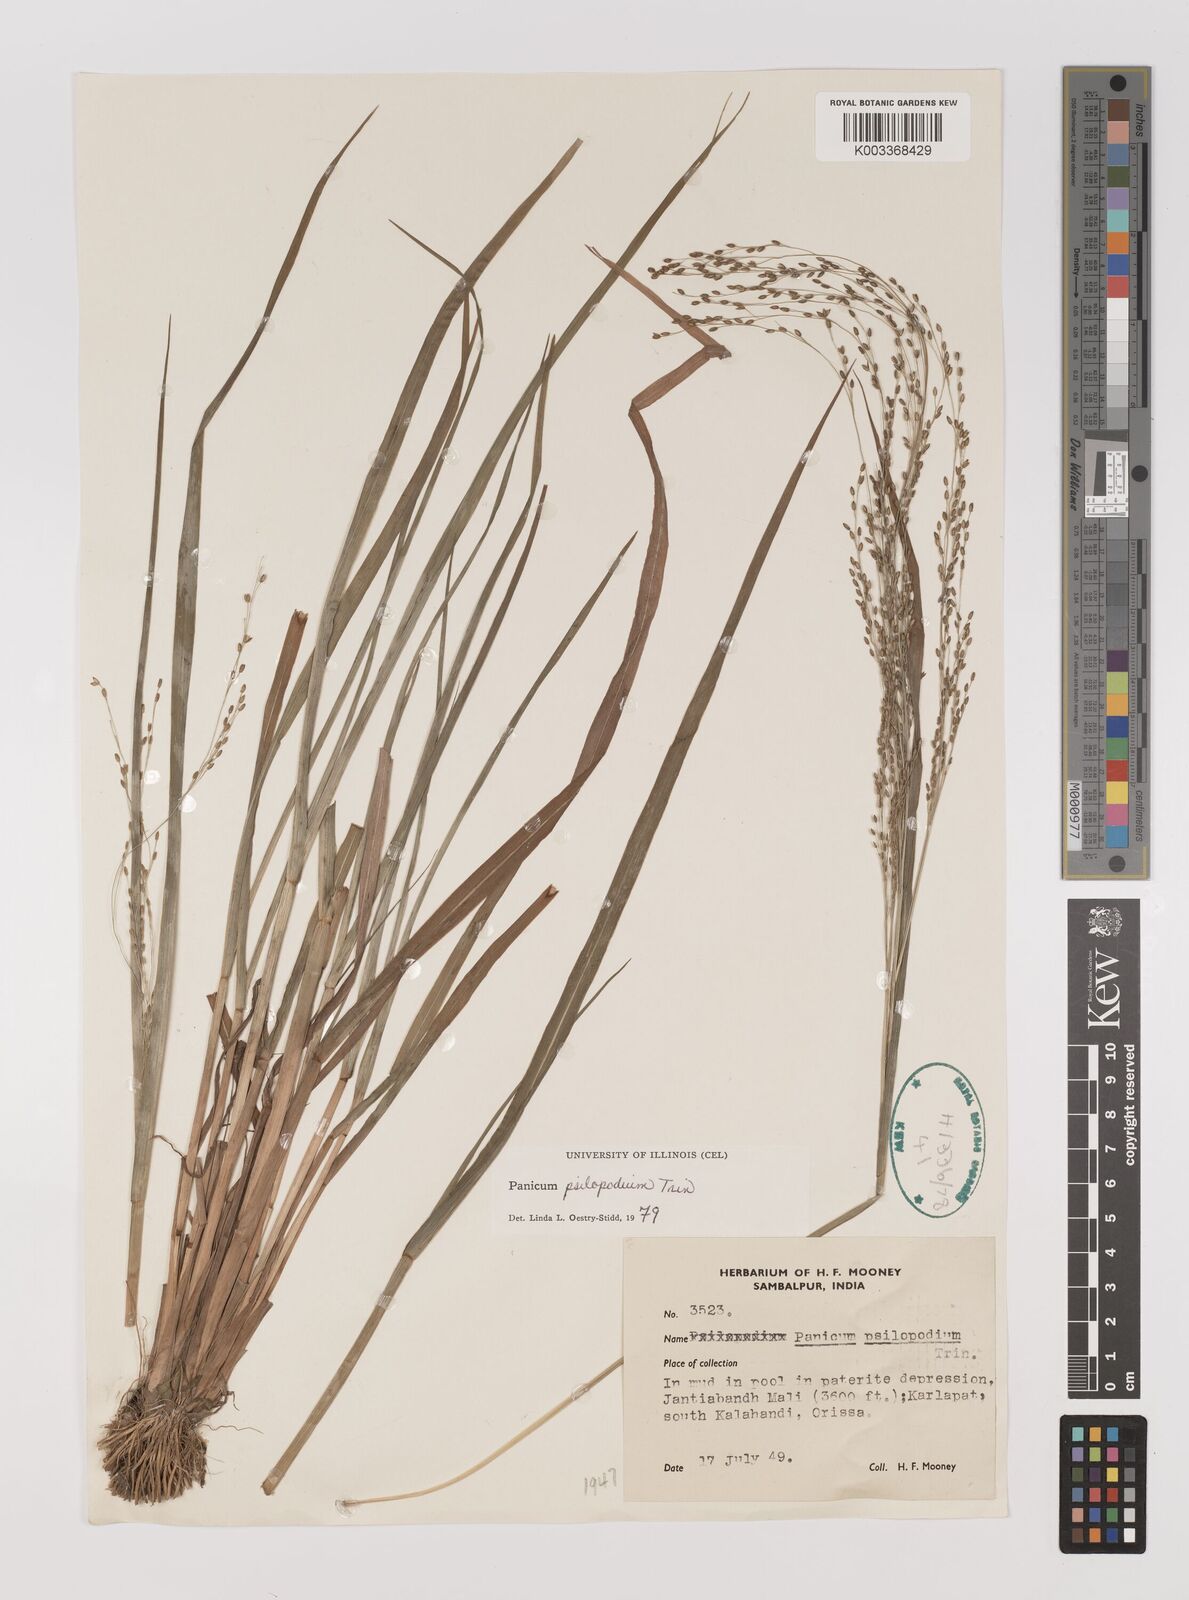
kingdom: Plantae
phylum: Tracheophyta
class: Liliopsida
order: Poales
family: Poaceae
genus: Panicum
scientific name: Panicum sumatrense
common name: Little millet
